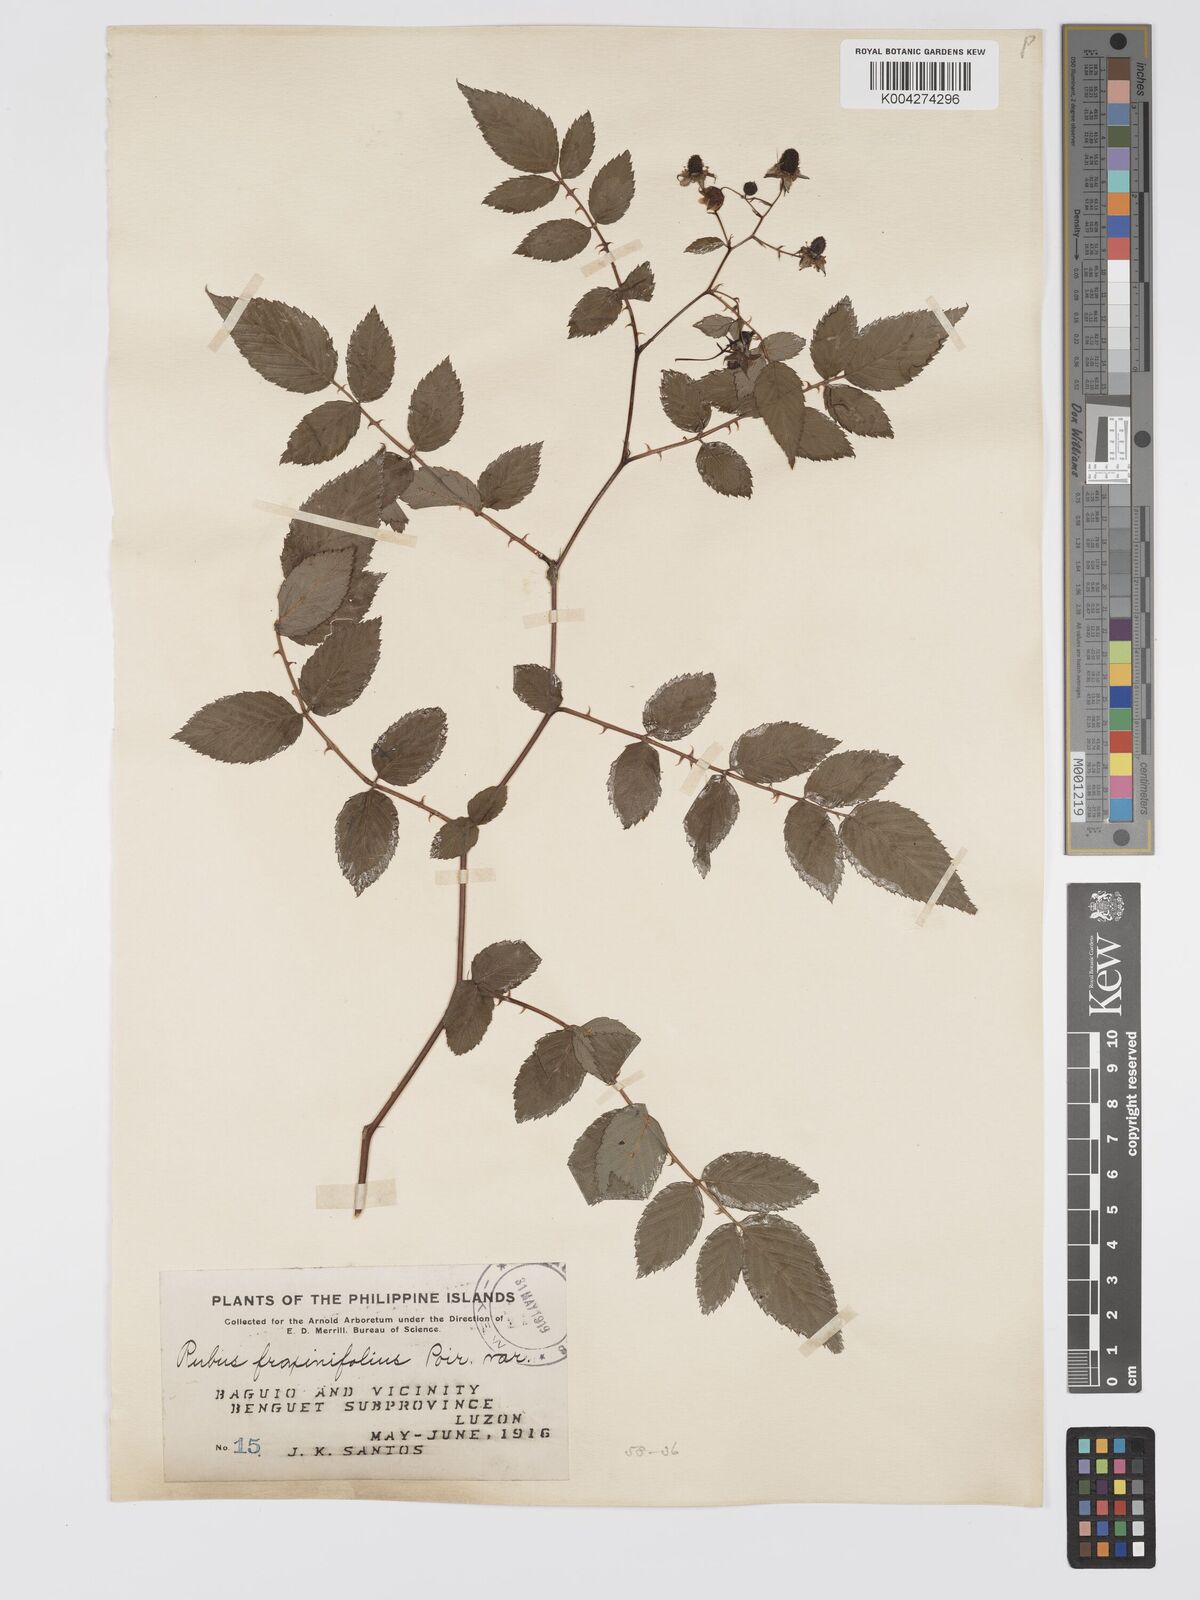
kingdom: Plantae
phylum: Tracheophyta
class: Magnoliopsida
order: Rosales
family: Rosaceae
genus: Rubus
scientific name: Rubus fraxinifolius
